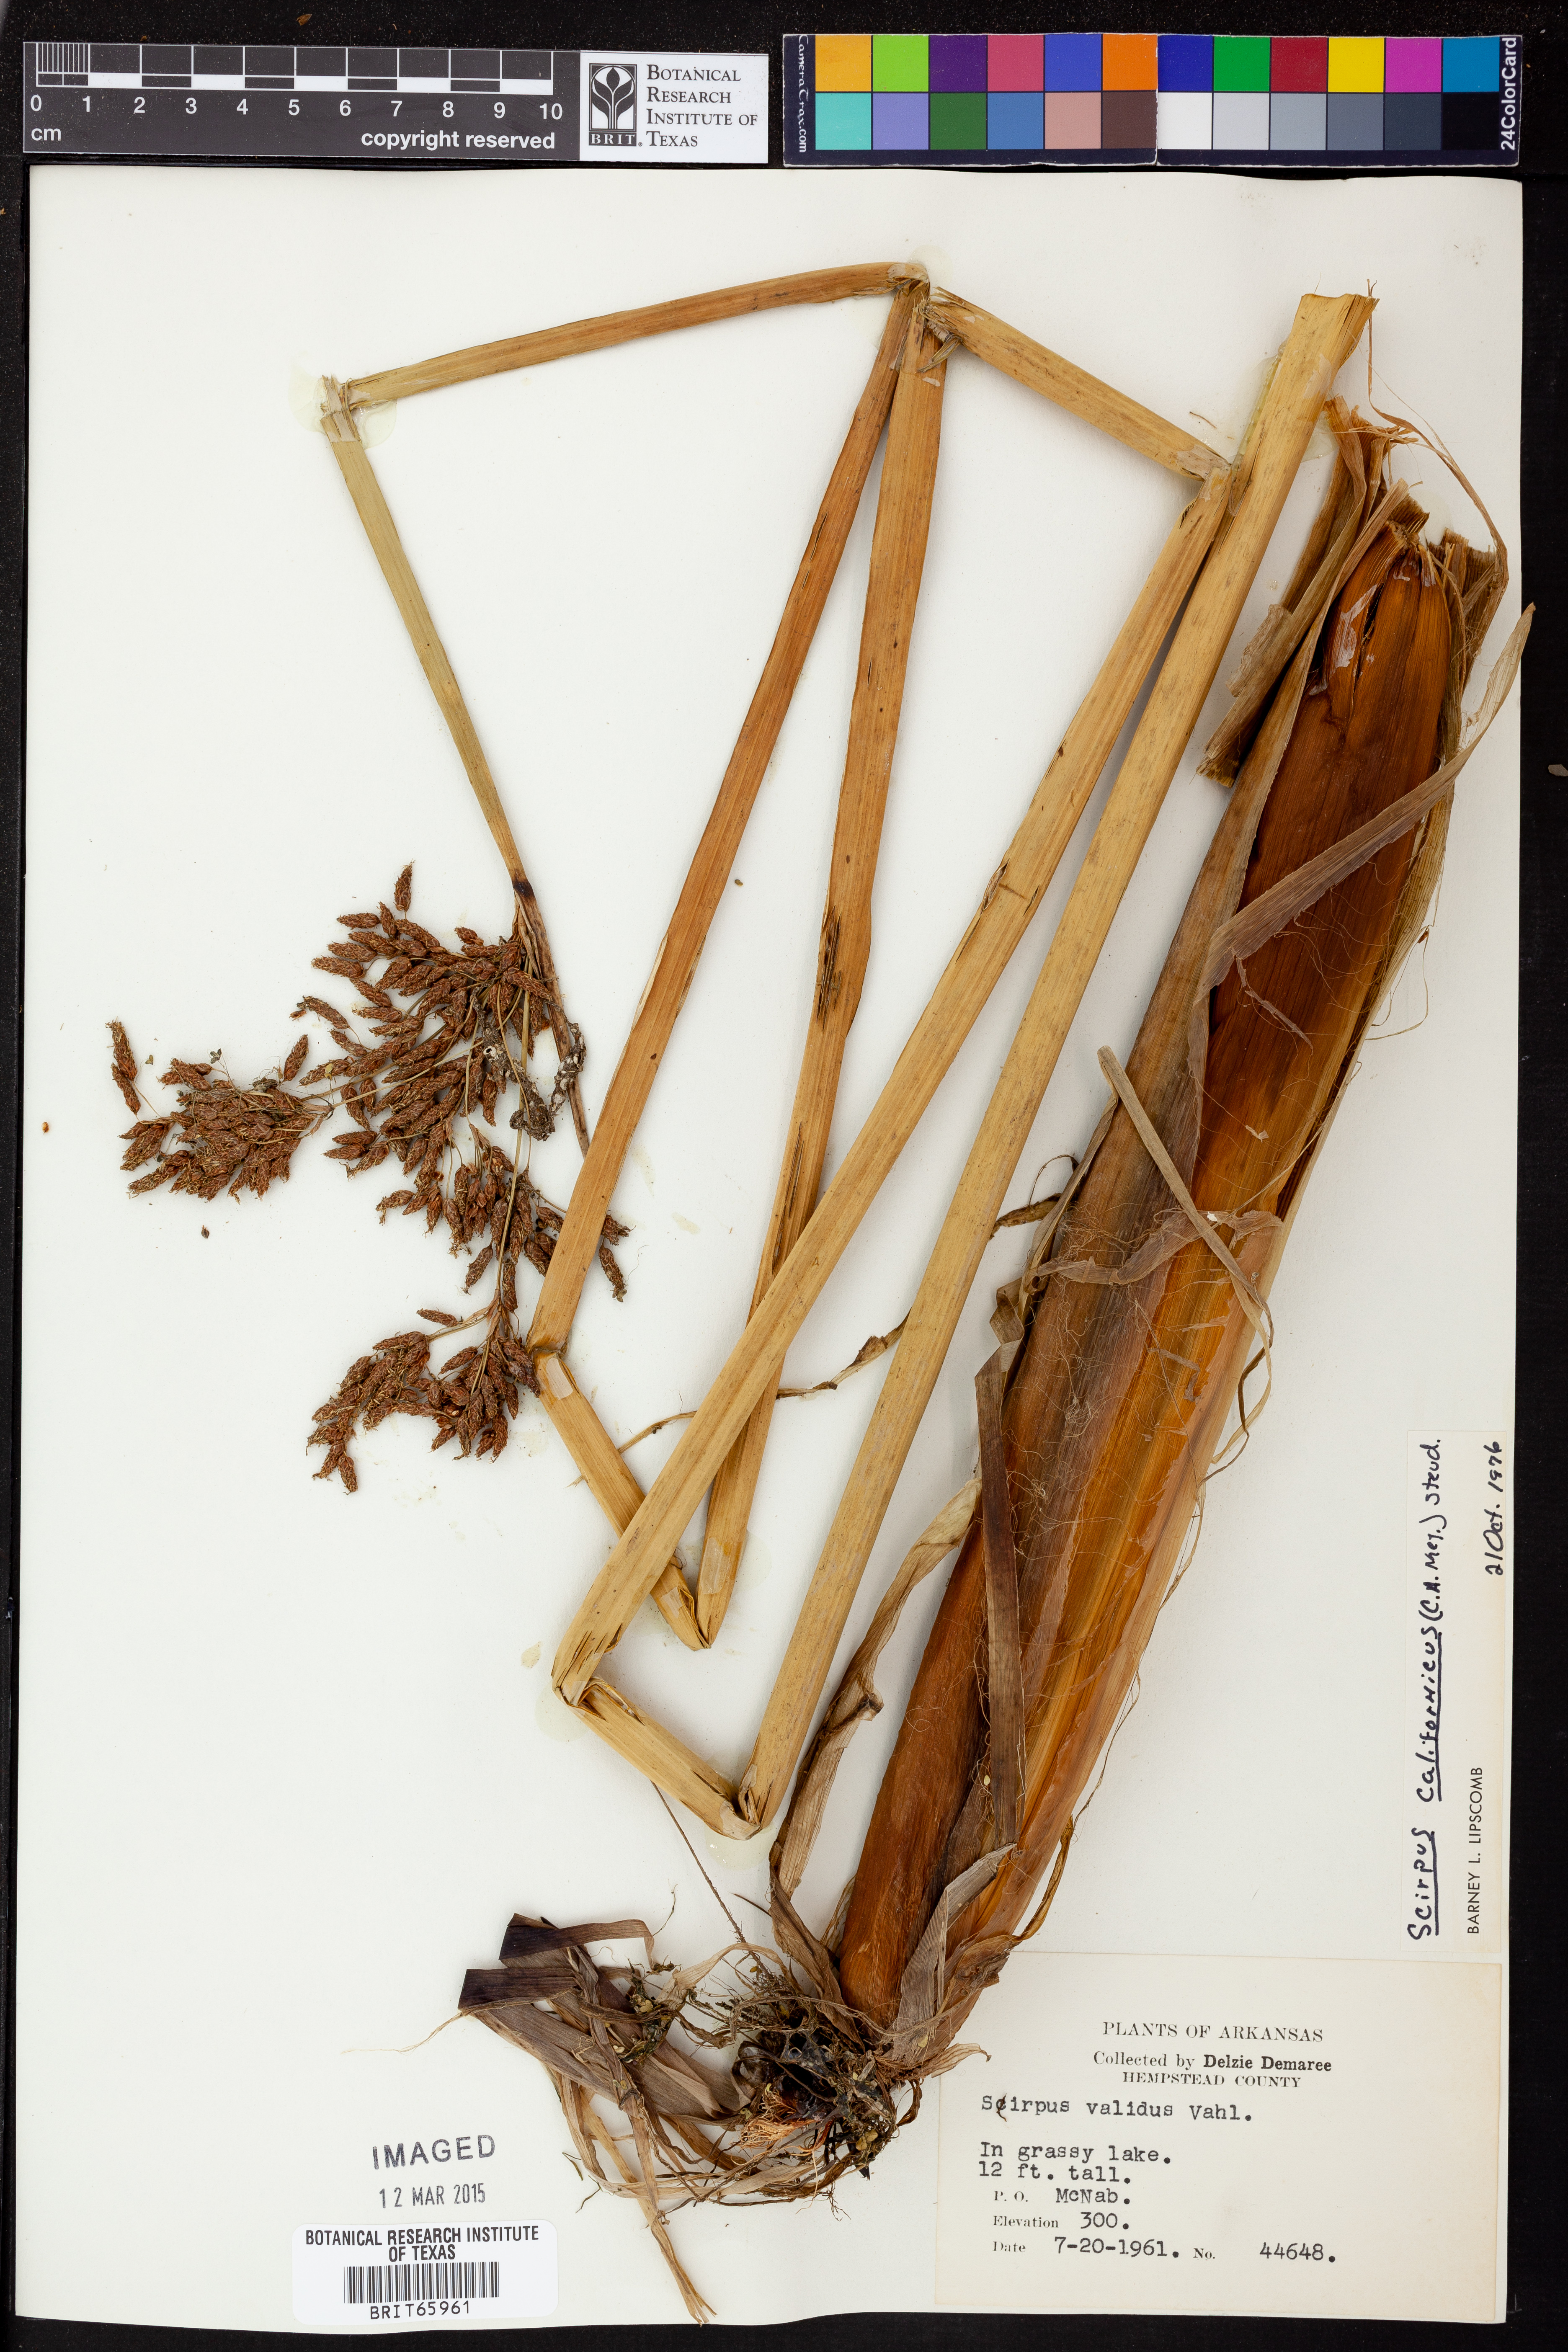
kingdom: Plantae
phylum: Tracheophyta
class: Liliopsida
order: Poales
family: Cyperaceae
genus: Schoenoplectus
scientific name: Schoenoplectus californicus
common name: California bulrush
